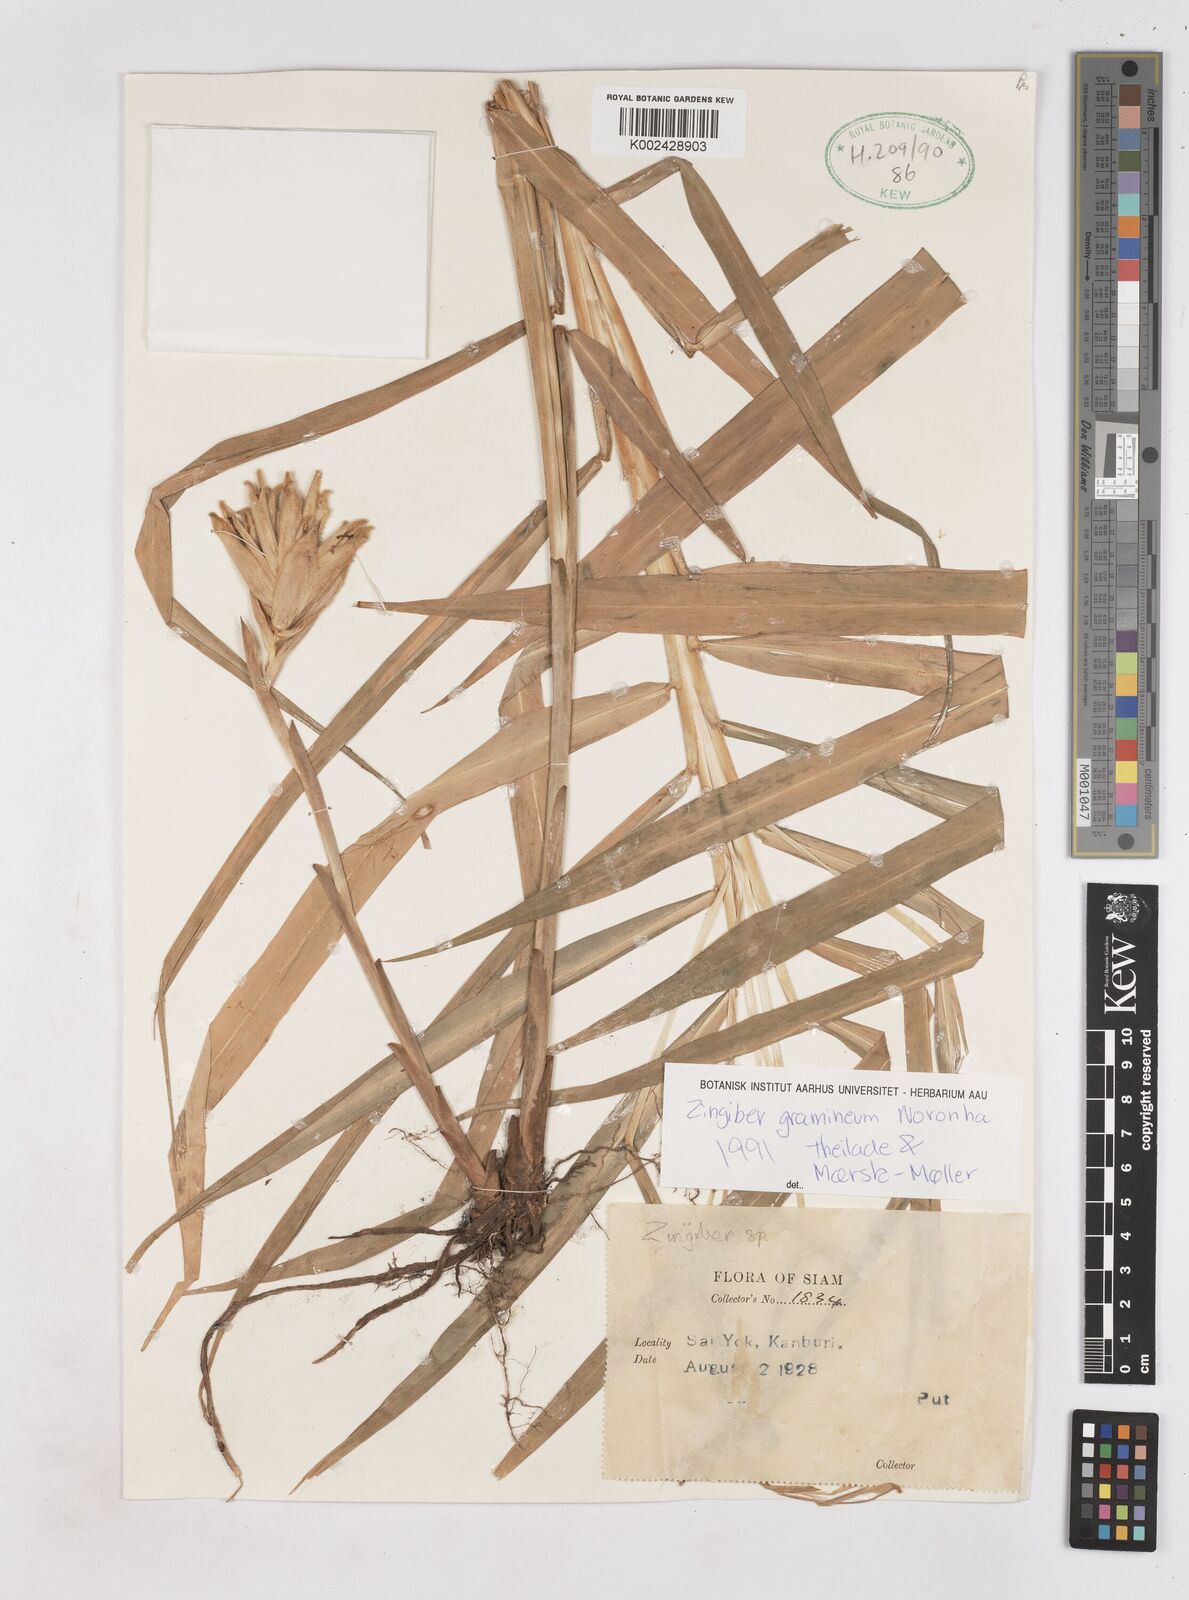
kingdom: Plantae
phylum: Tracheophyta
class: Liliopsida
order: Zingiberales
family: Zingiberaceae
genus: Zingiber
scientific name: Zingiber gramineum
